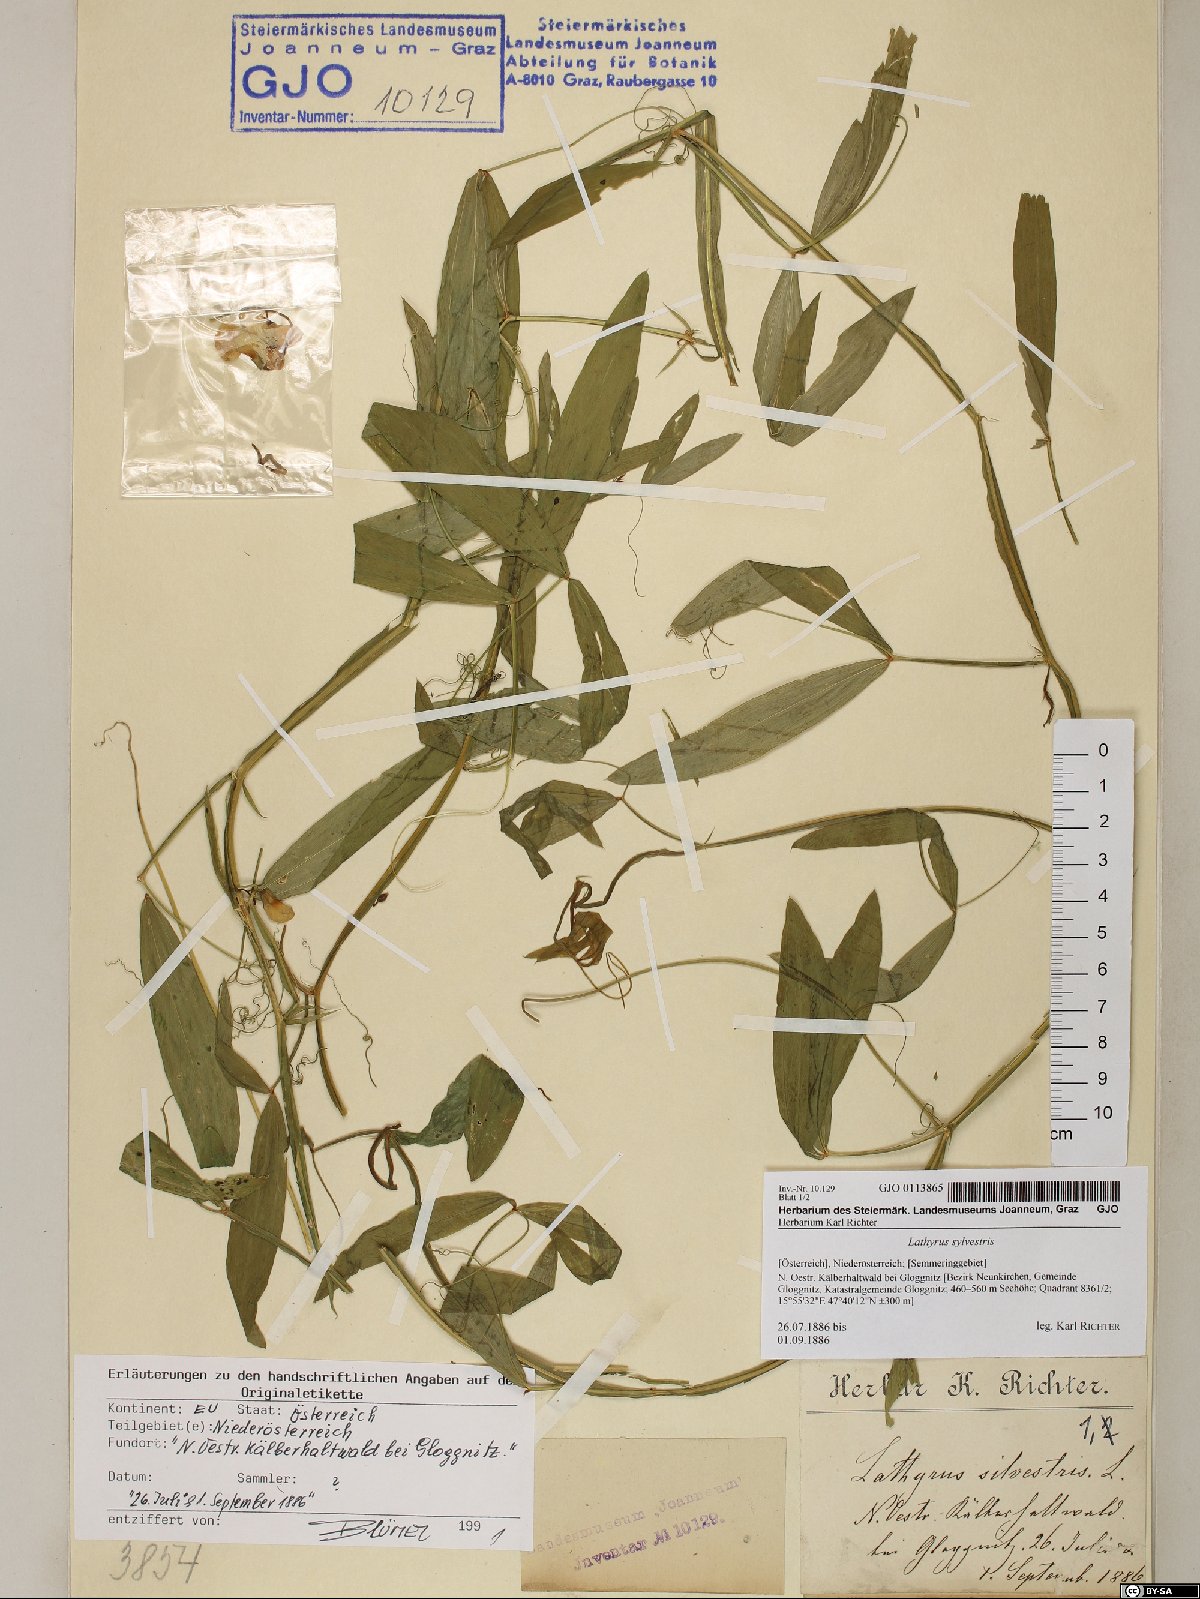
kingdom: Plantae
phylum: Tracheophyta
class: Magnoliopsida
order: Fabales
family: Fabaceae
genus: Lathyrus
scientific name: Lathyrus sylvestris
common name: Flat pea
